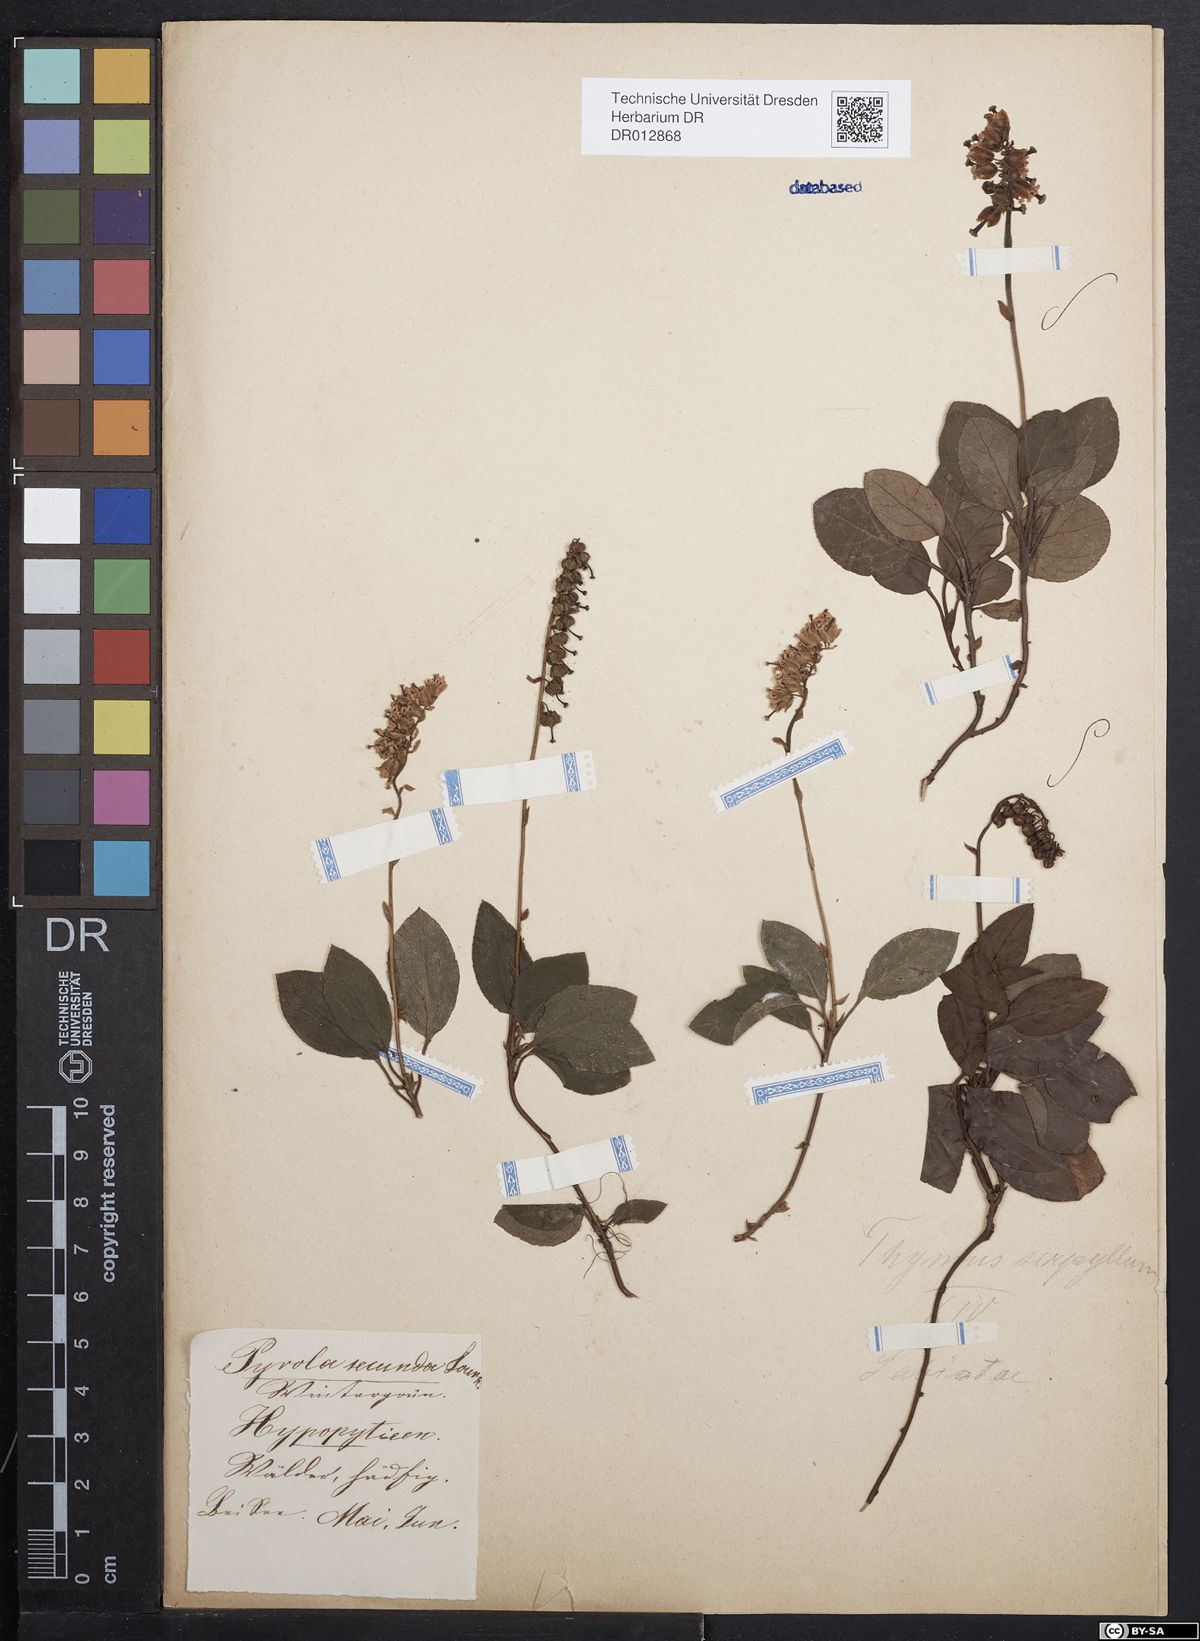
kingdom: Plantae
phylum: Tracheophyta
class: Magnoliopsida
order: Ericales
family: Ericaceae
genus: Orthilia
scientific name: Orthilia secunda
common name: One-sided orthilia
